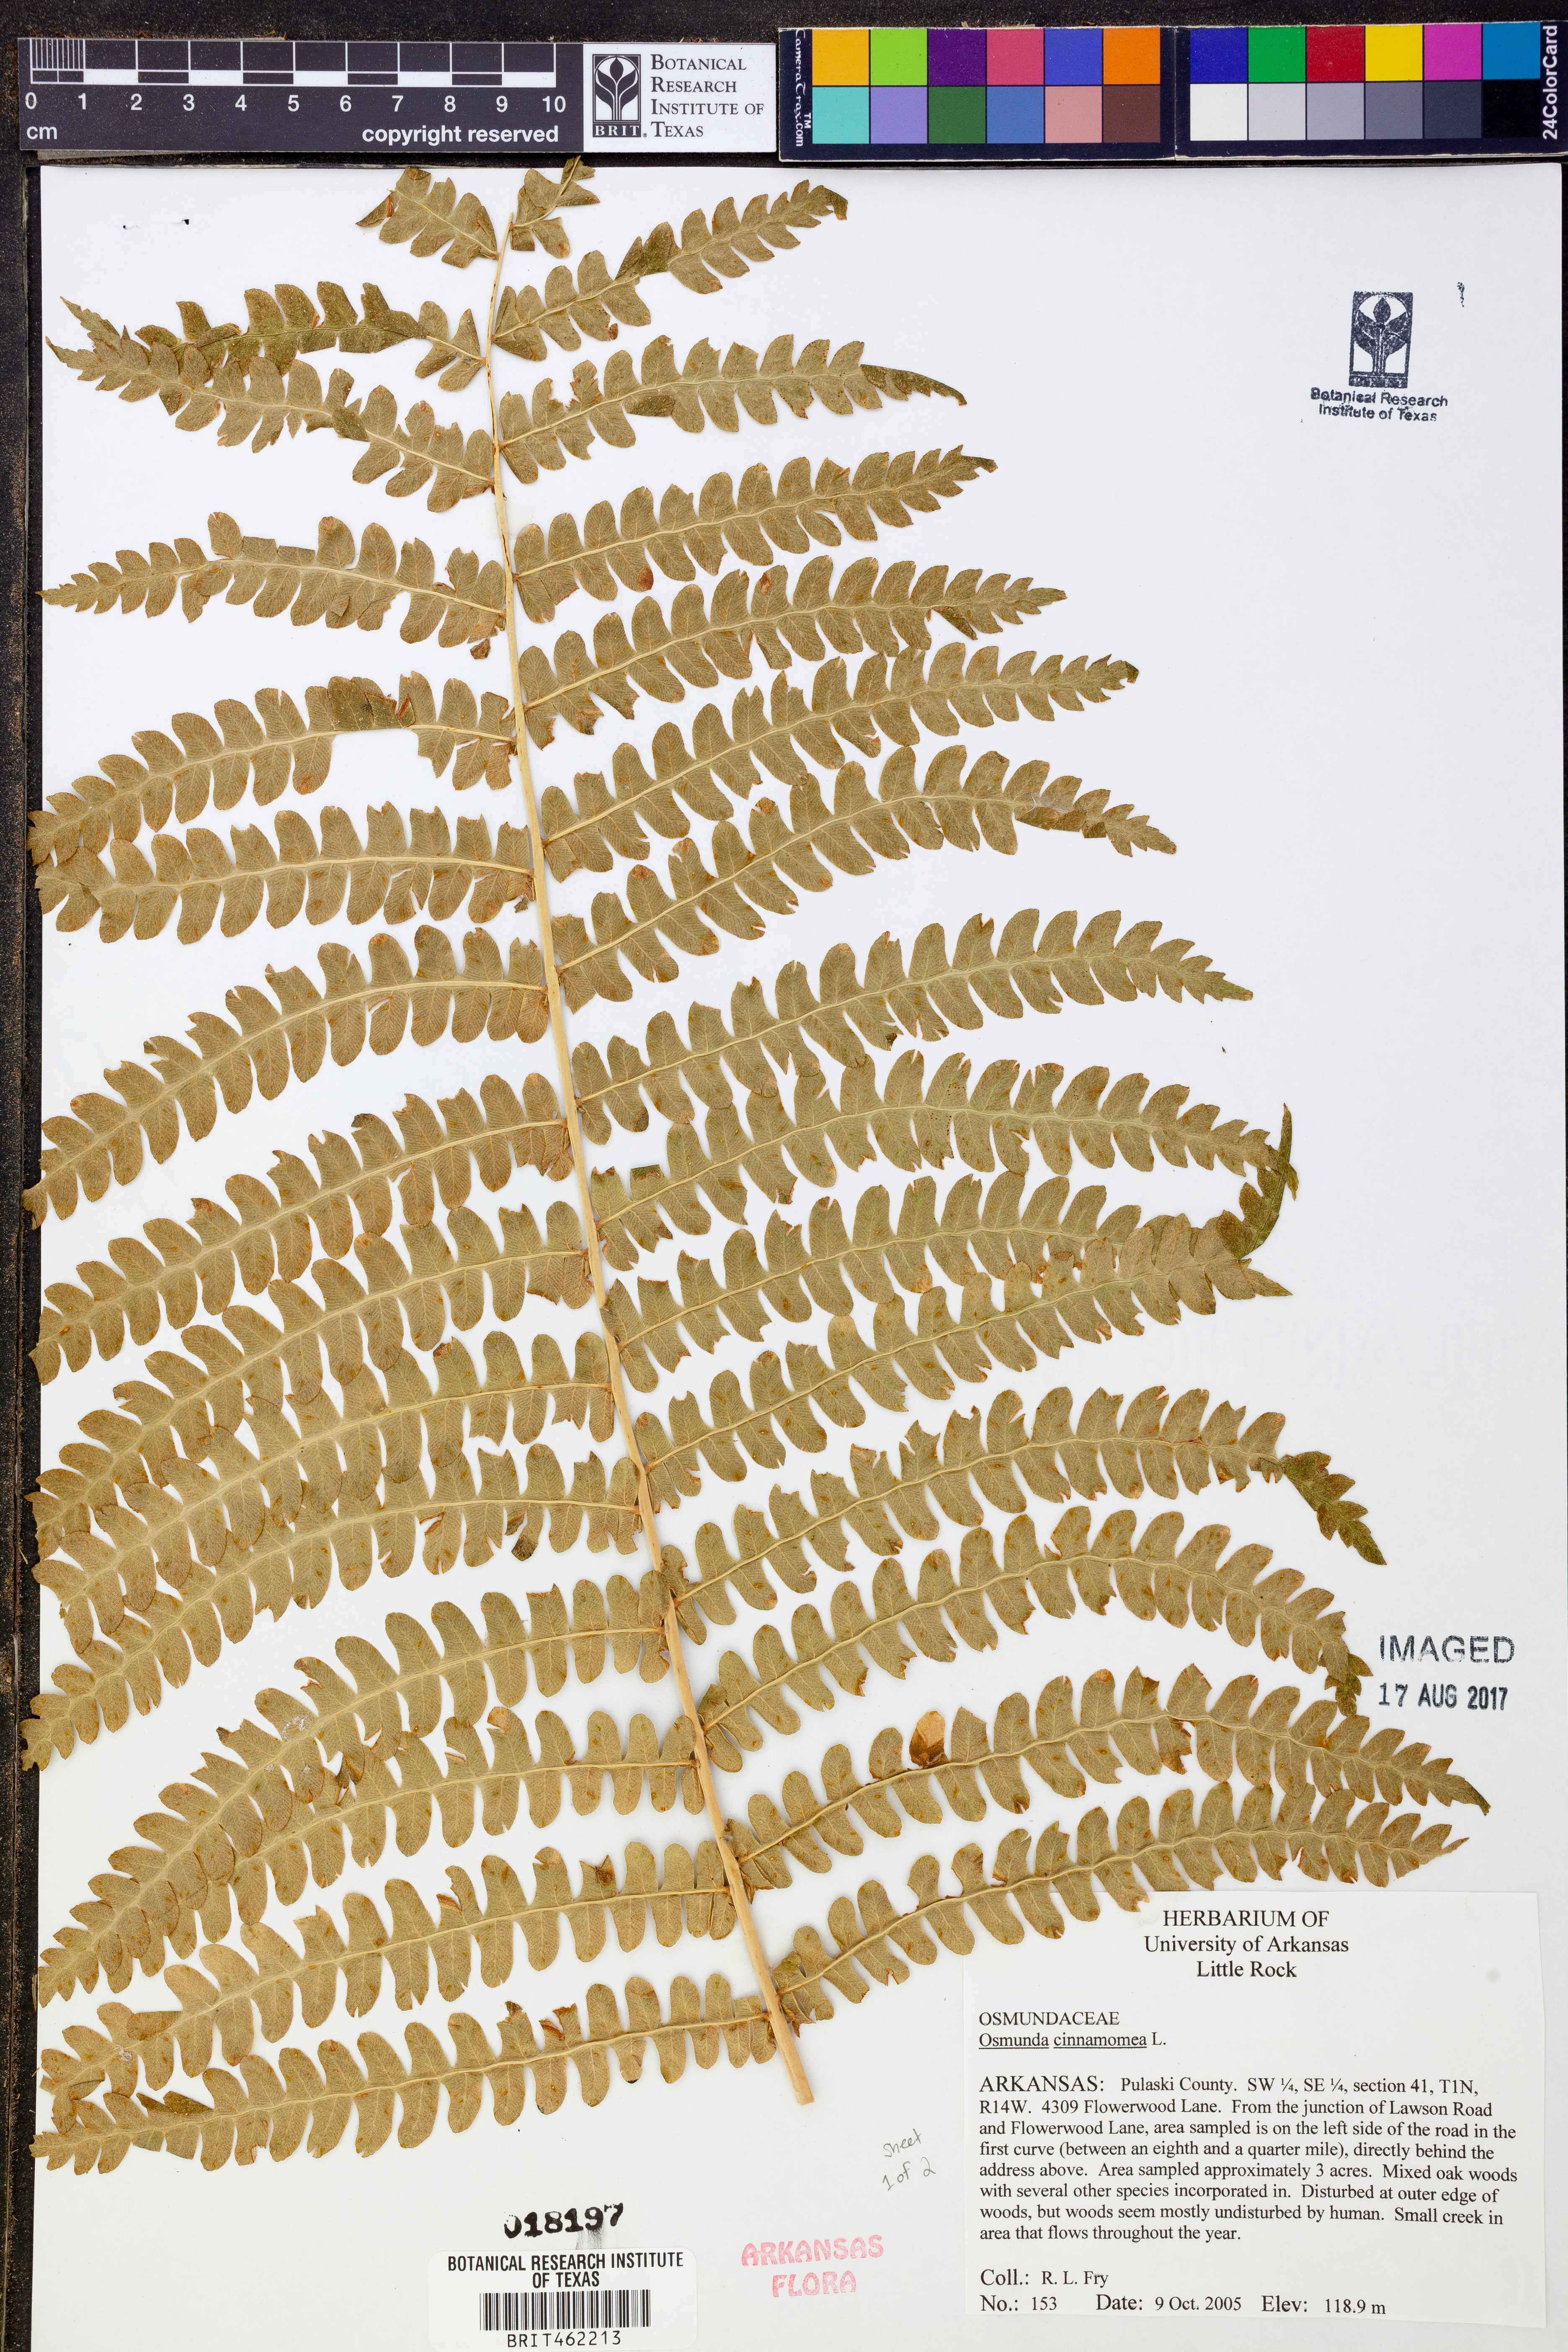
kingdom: Plantae
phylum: Tracheophyta
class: Polypodiopsida
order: Osmundales
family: Osmundaceae
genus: Osmundastrum
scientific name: Osmundastrum cinnamomeum
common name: Cinnamon fern
